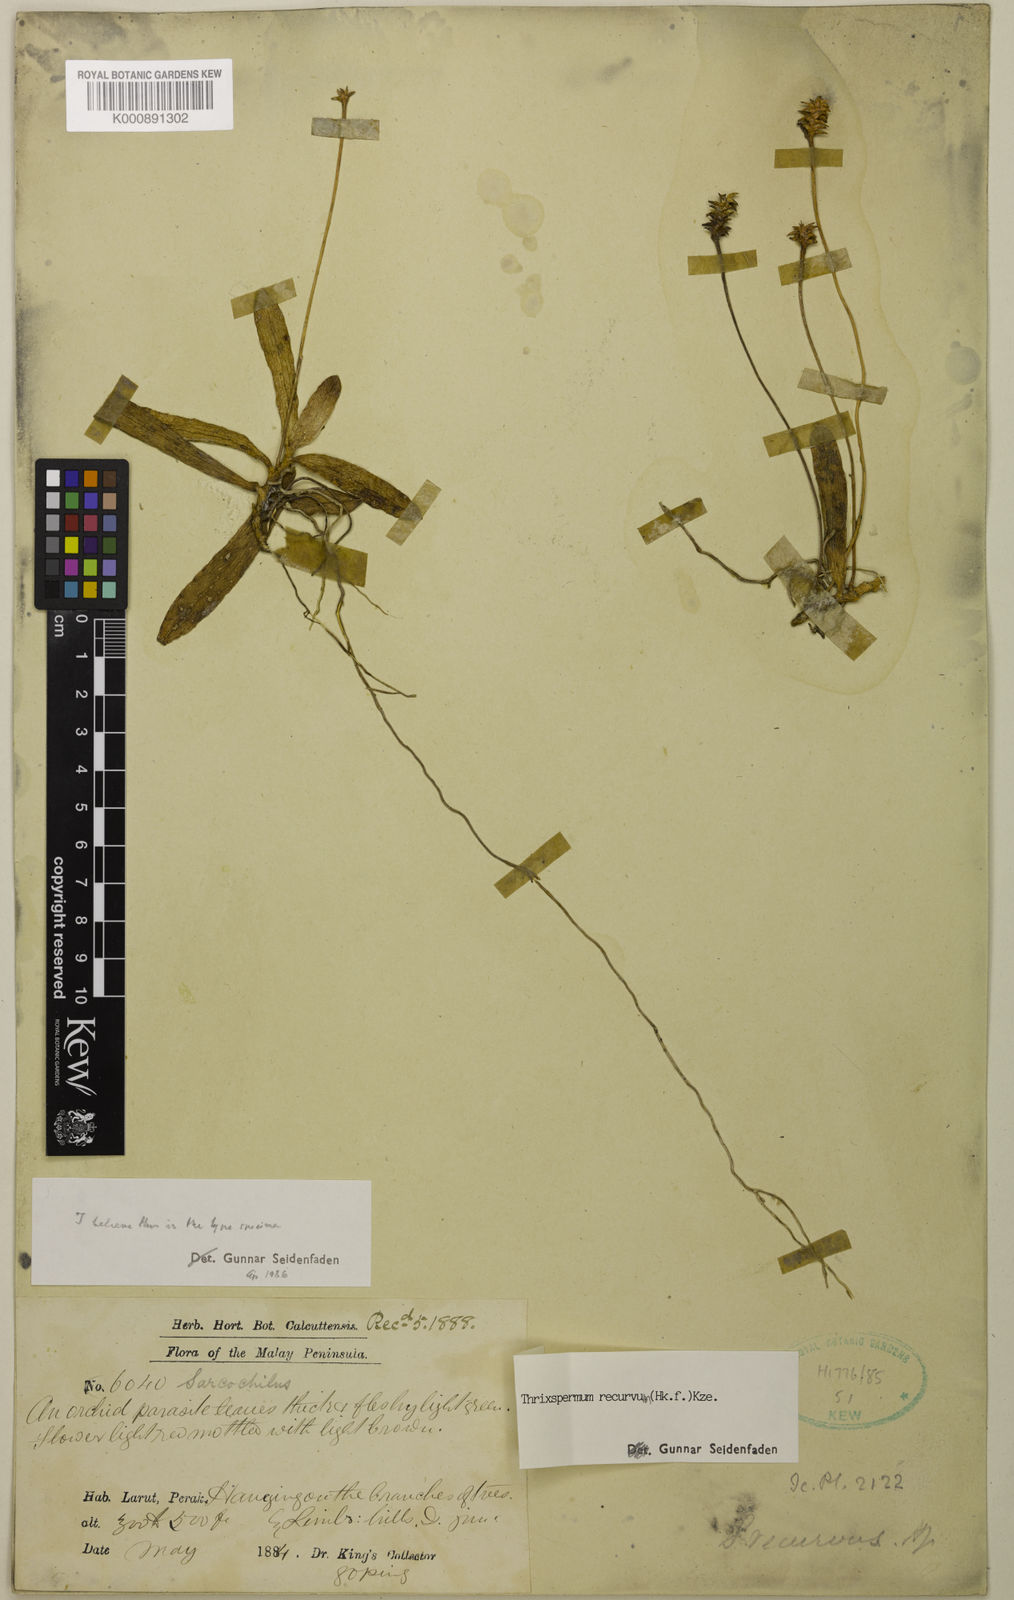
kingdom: Plantae
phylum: Tracheophyta
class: Liliopsida
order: Asparagales
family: Orchidaceae
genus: Thrixspermum
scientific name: Thrixspermum recurvum
